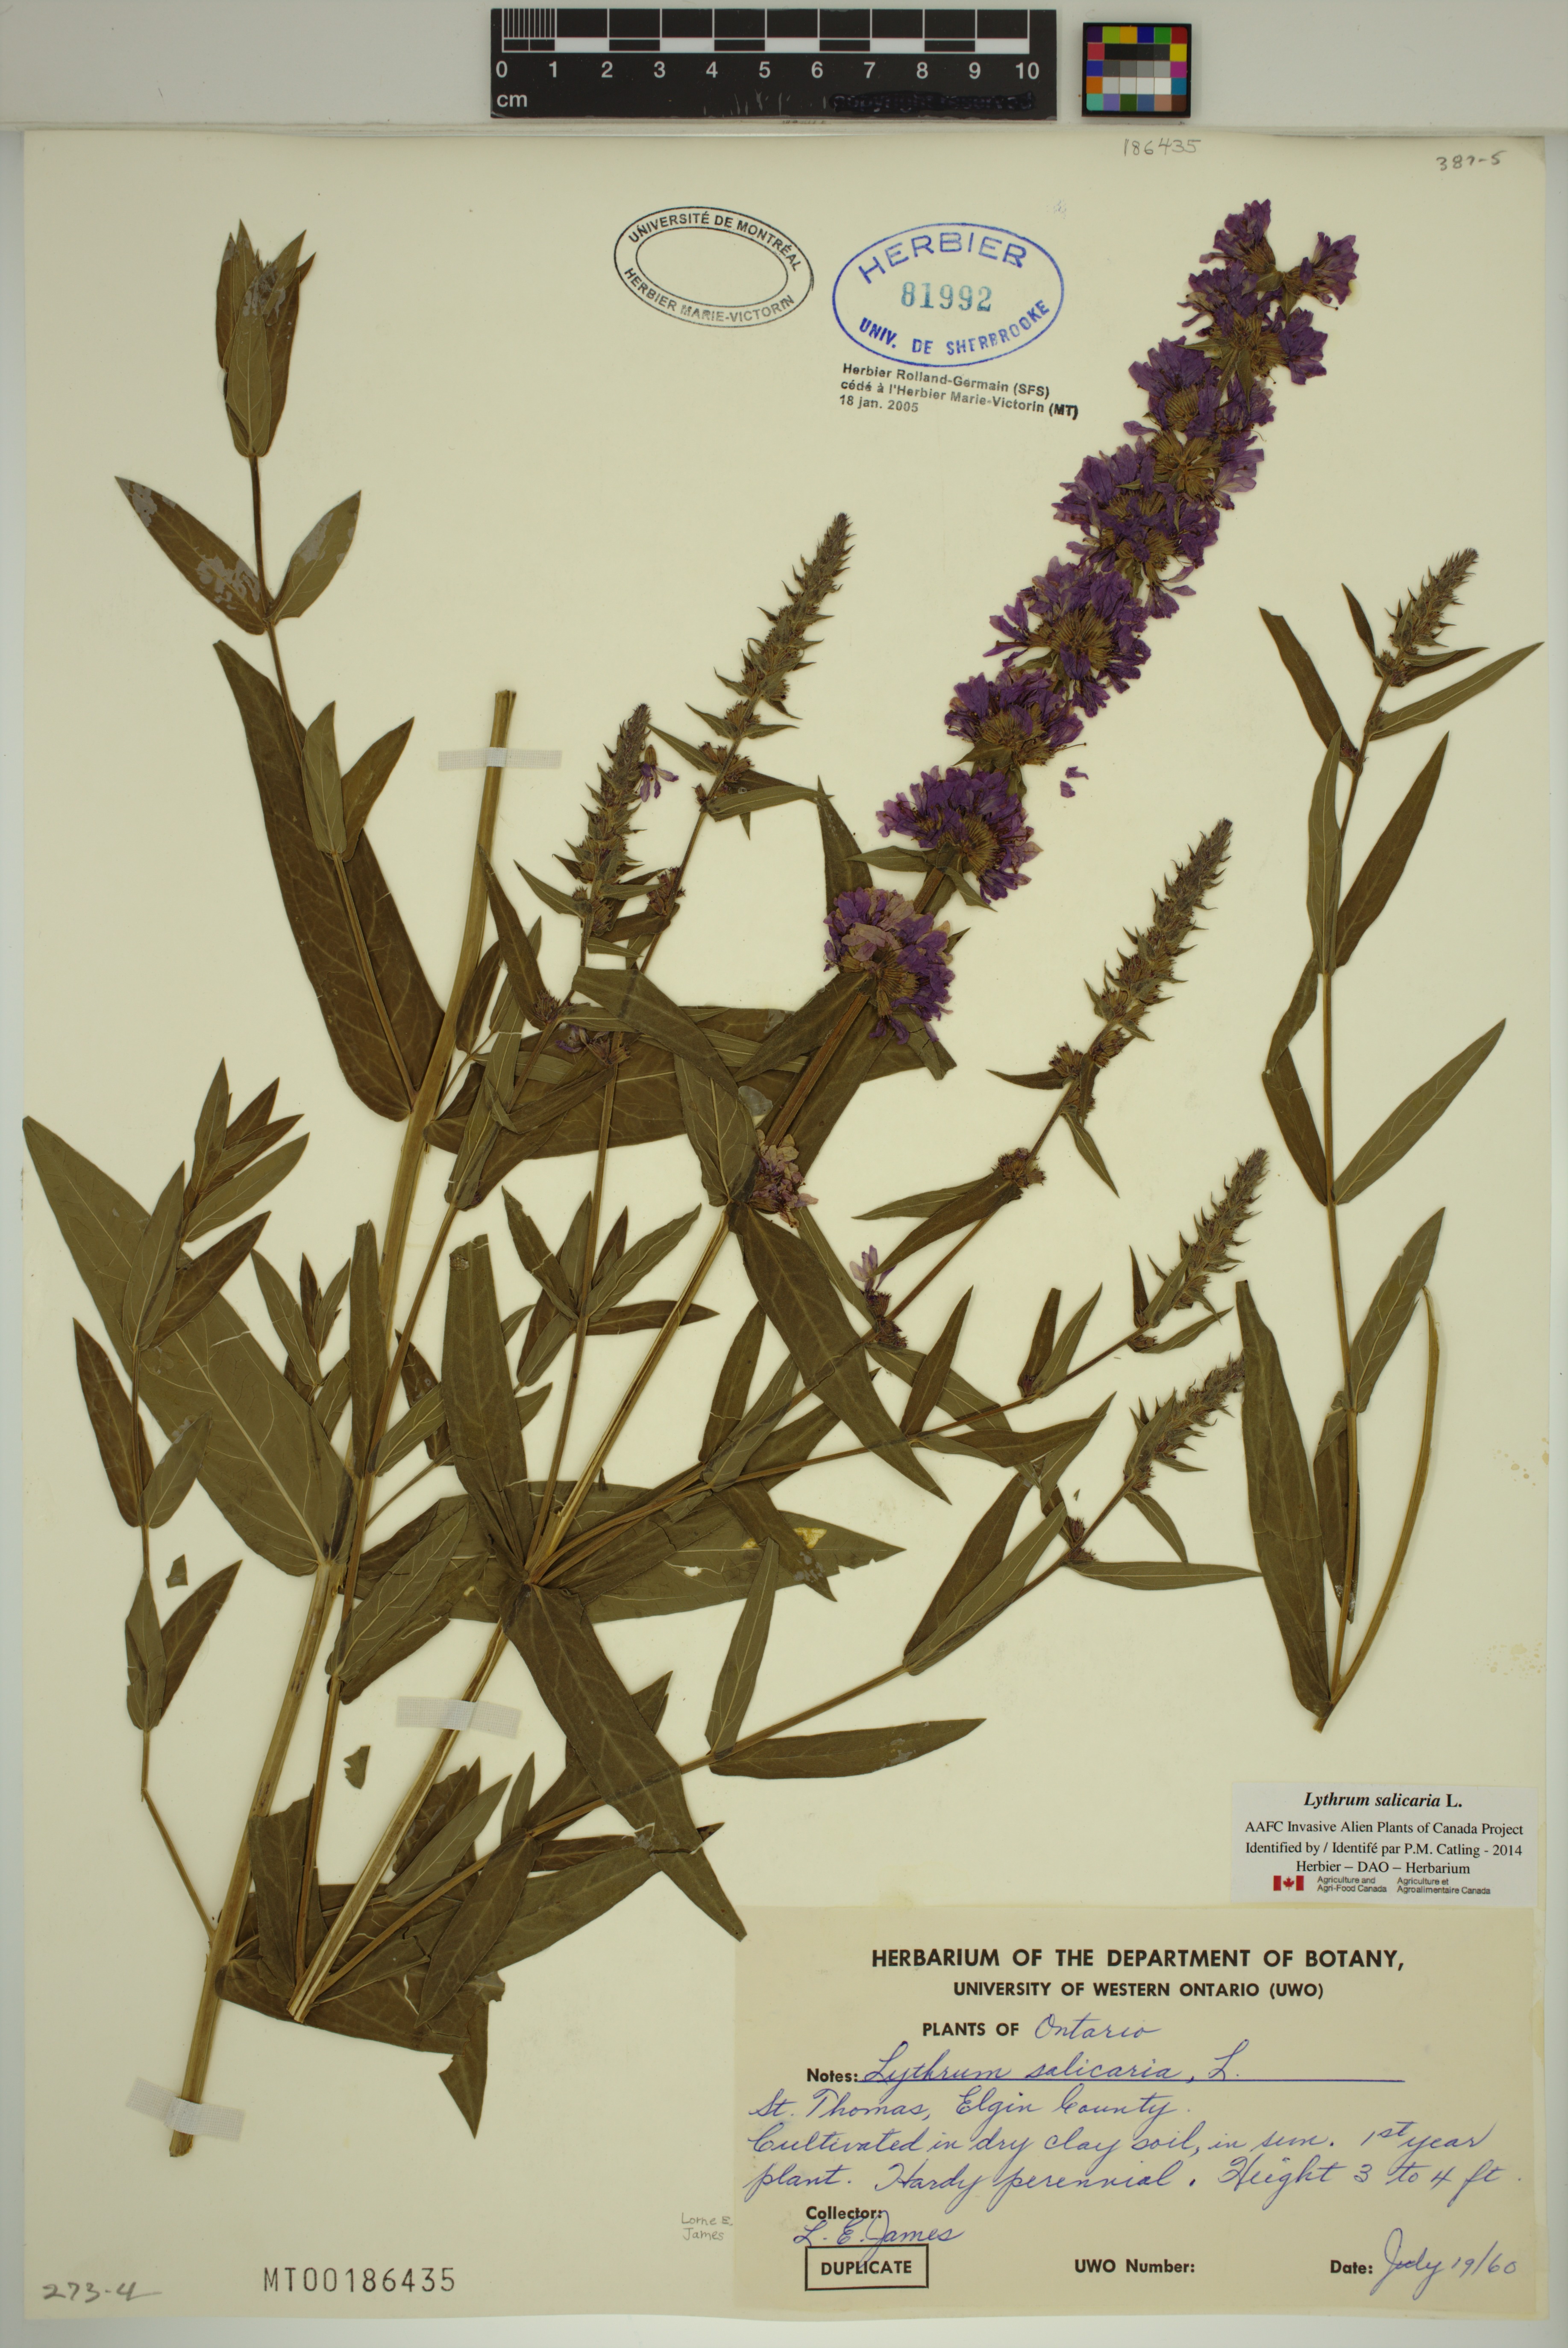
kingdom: Plantae
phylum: Tracheophyta
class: Magnoliopsida
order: Myrtales
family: Lythraceae
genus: Lythrum
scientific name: Lythrum salicaria
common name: Purple loosestrife
